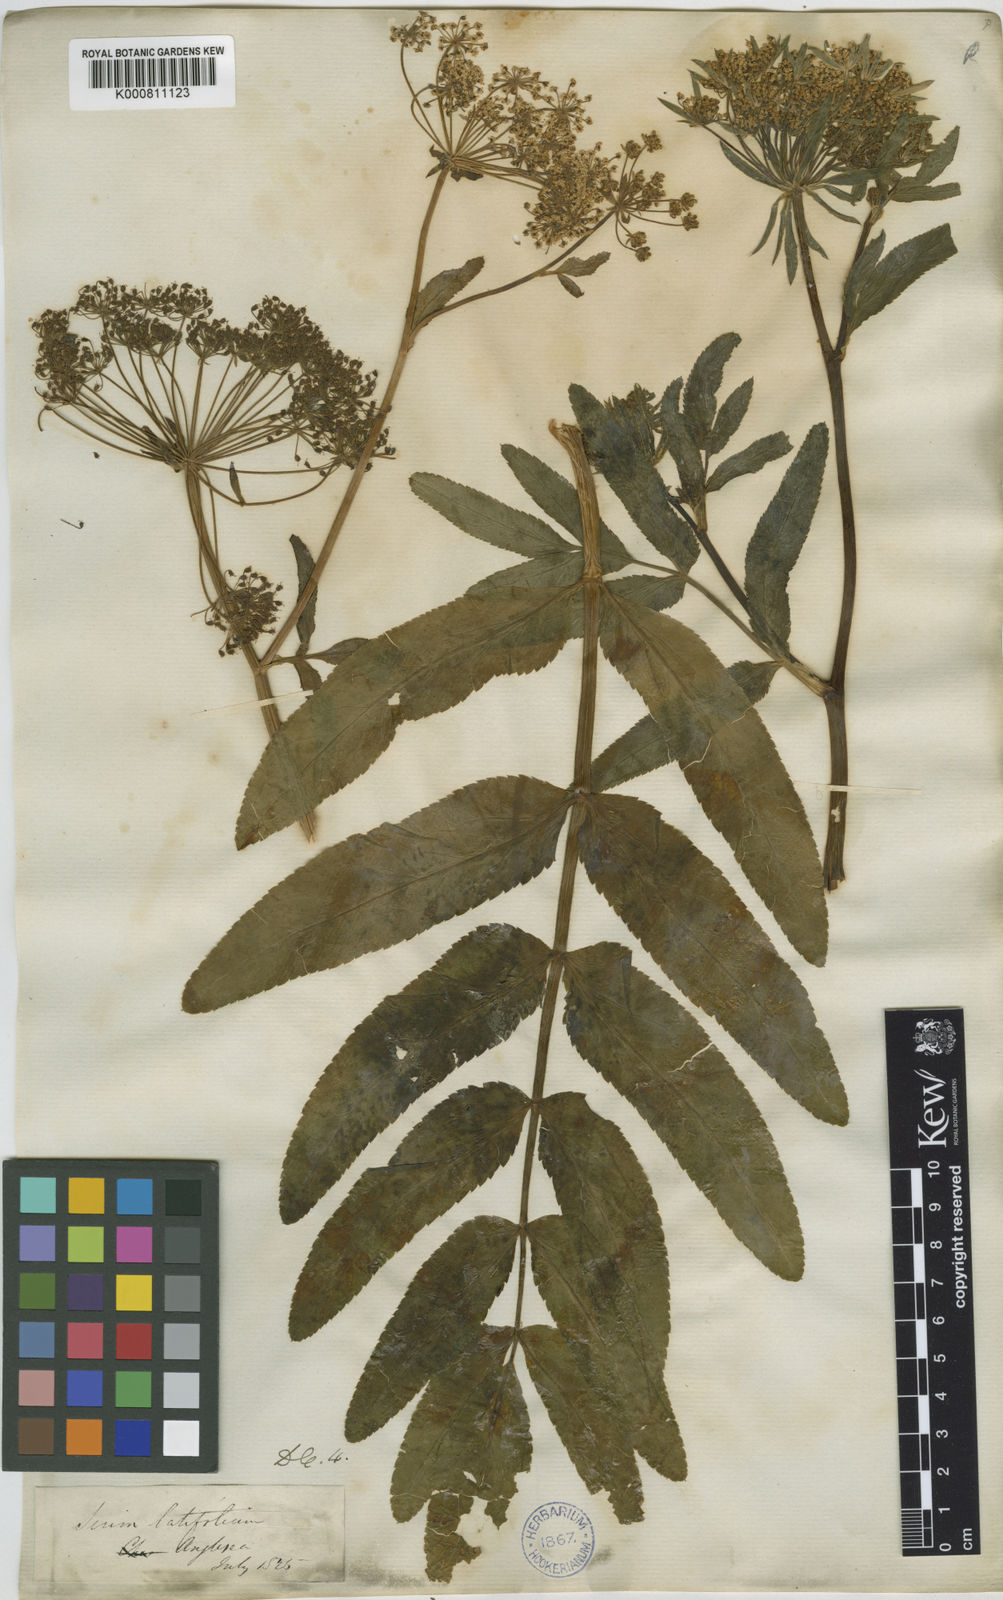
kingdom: Plantae
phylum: Tracheophyta
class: Magnoliopsida
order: Apiales
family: Apiaceae
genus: Sium
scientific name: Sium latifolium
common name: Greater water-parsnip
